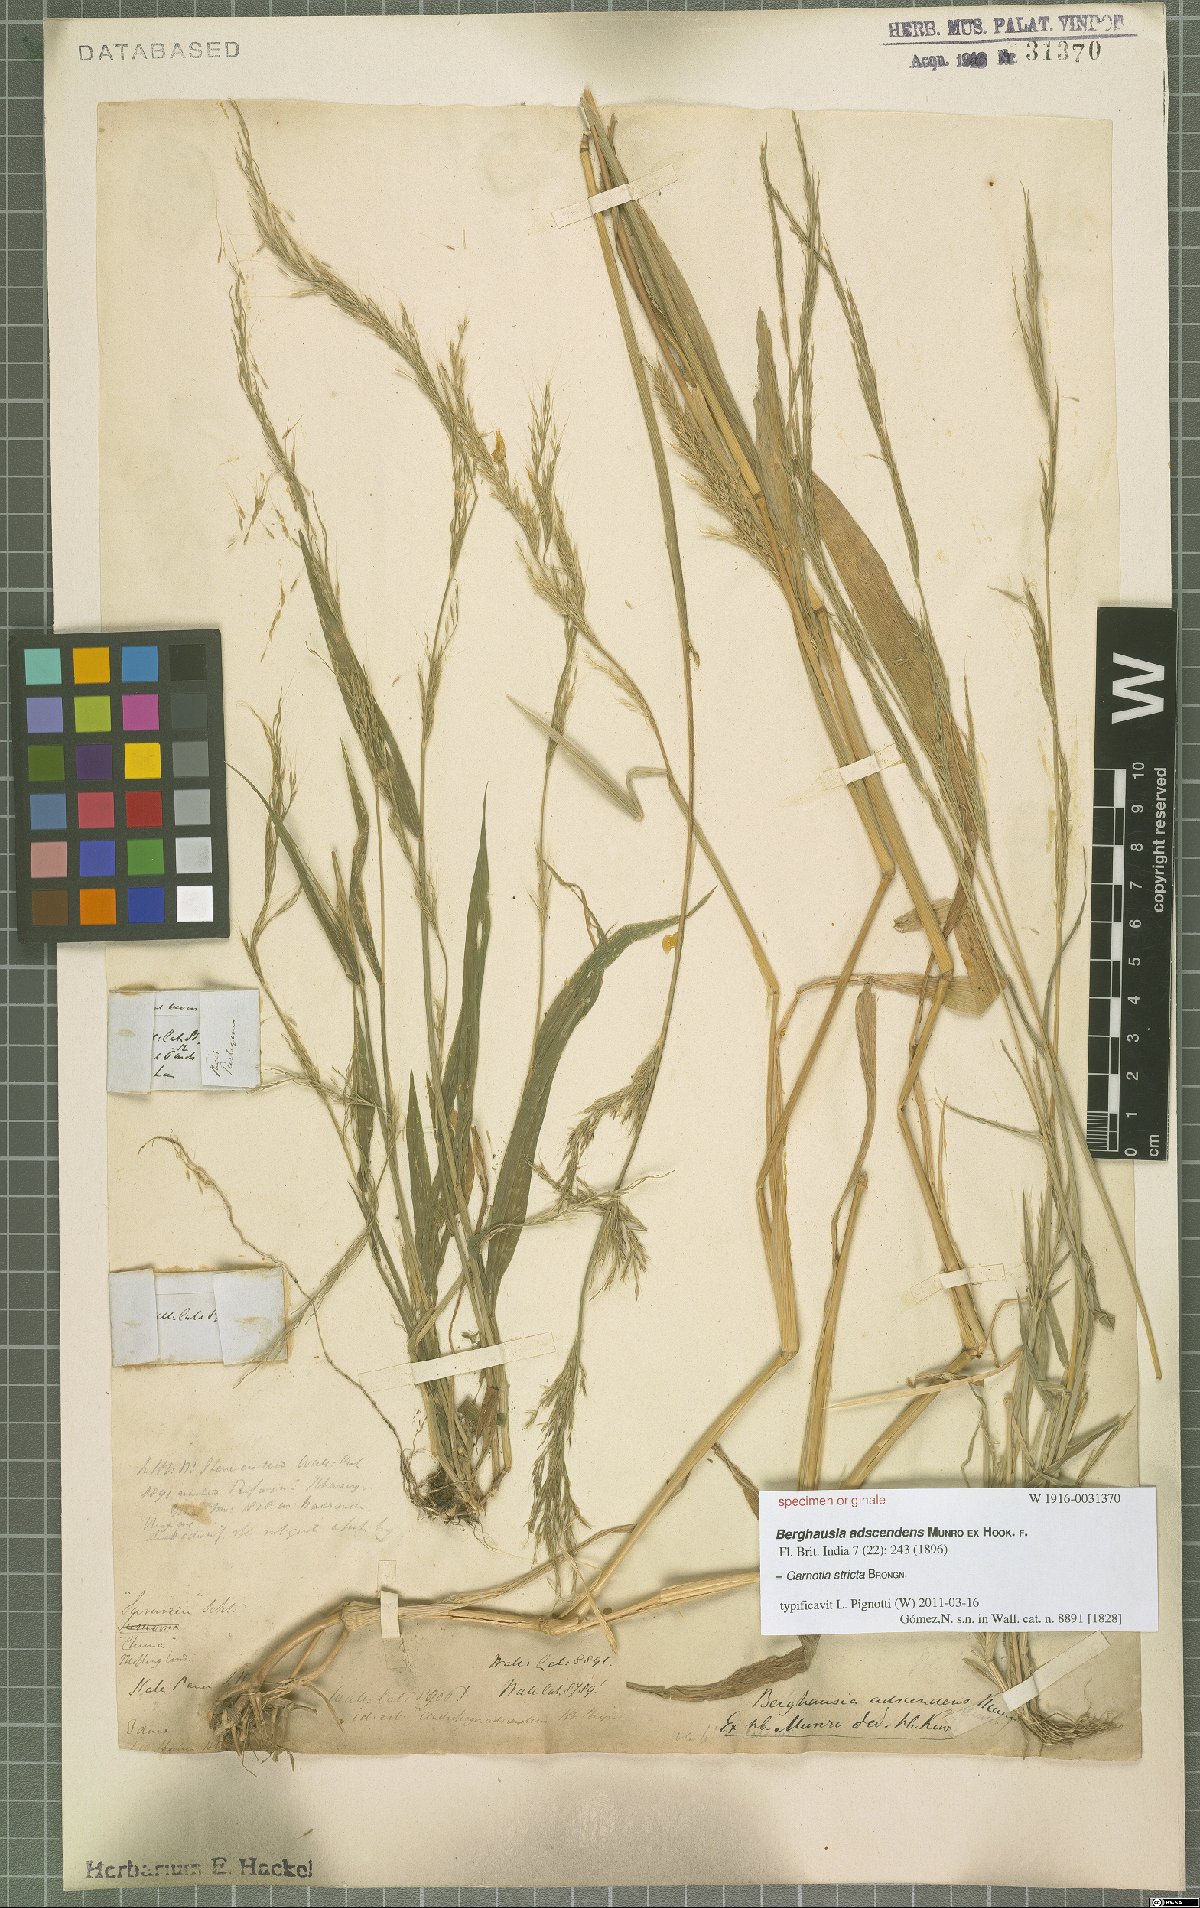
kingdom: Plantae
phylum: Tracheophyta
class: Liliopsida
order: Poales
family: Poaceae
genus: Garnotia
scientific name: Garnotia stricta
